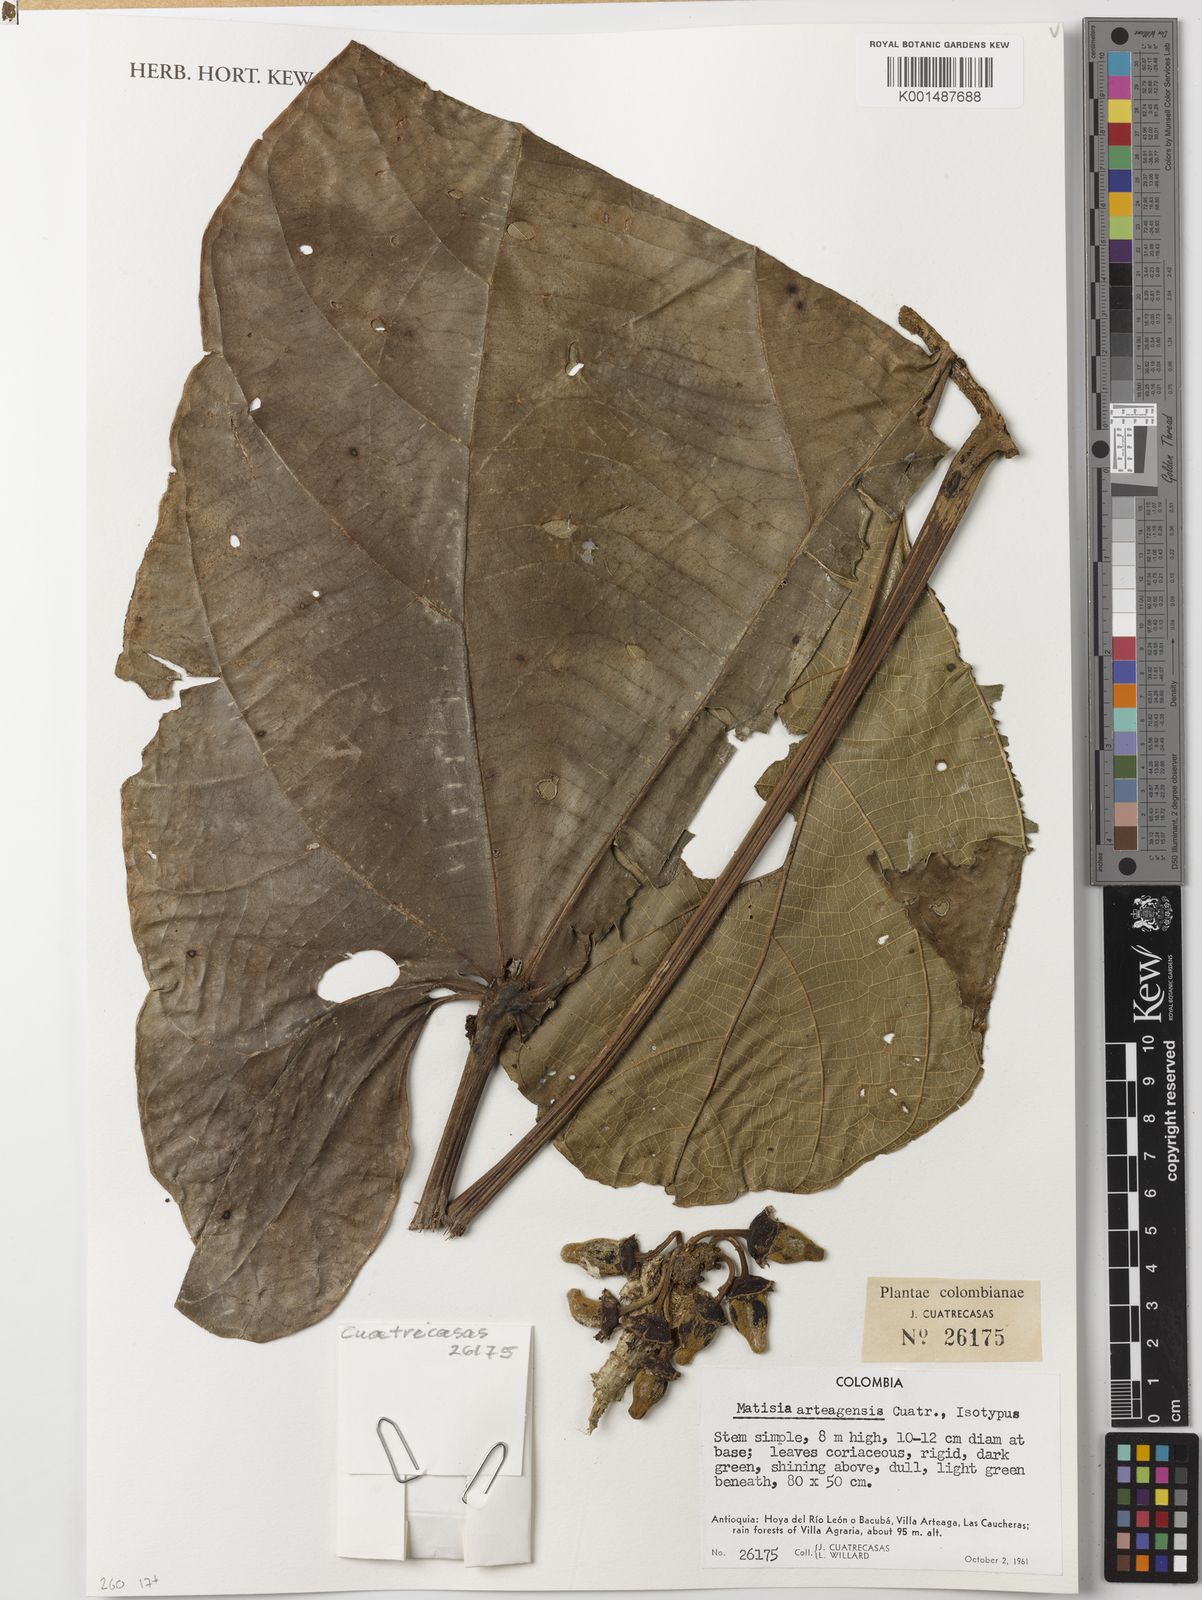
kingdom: Plantae
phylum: Tracheophyta
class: Magnoliopsida
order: Malvales
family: Malvaceae
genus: Matisia
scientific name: Matisia arteagensis
